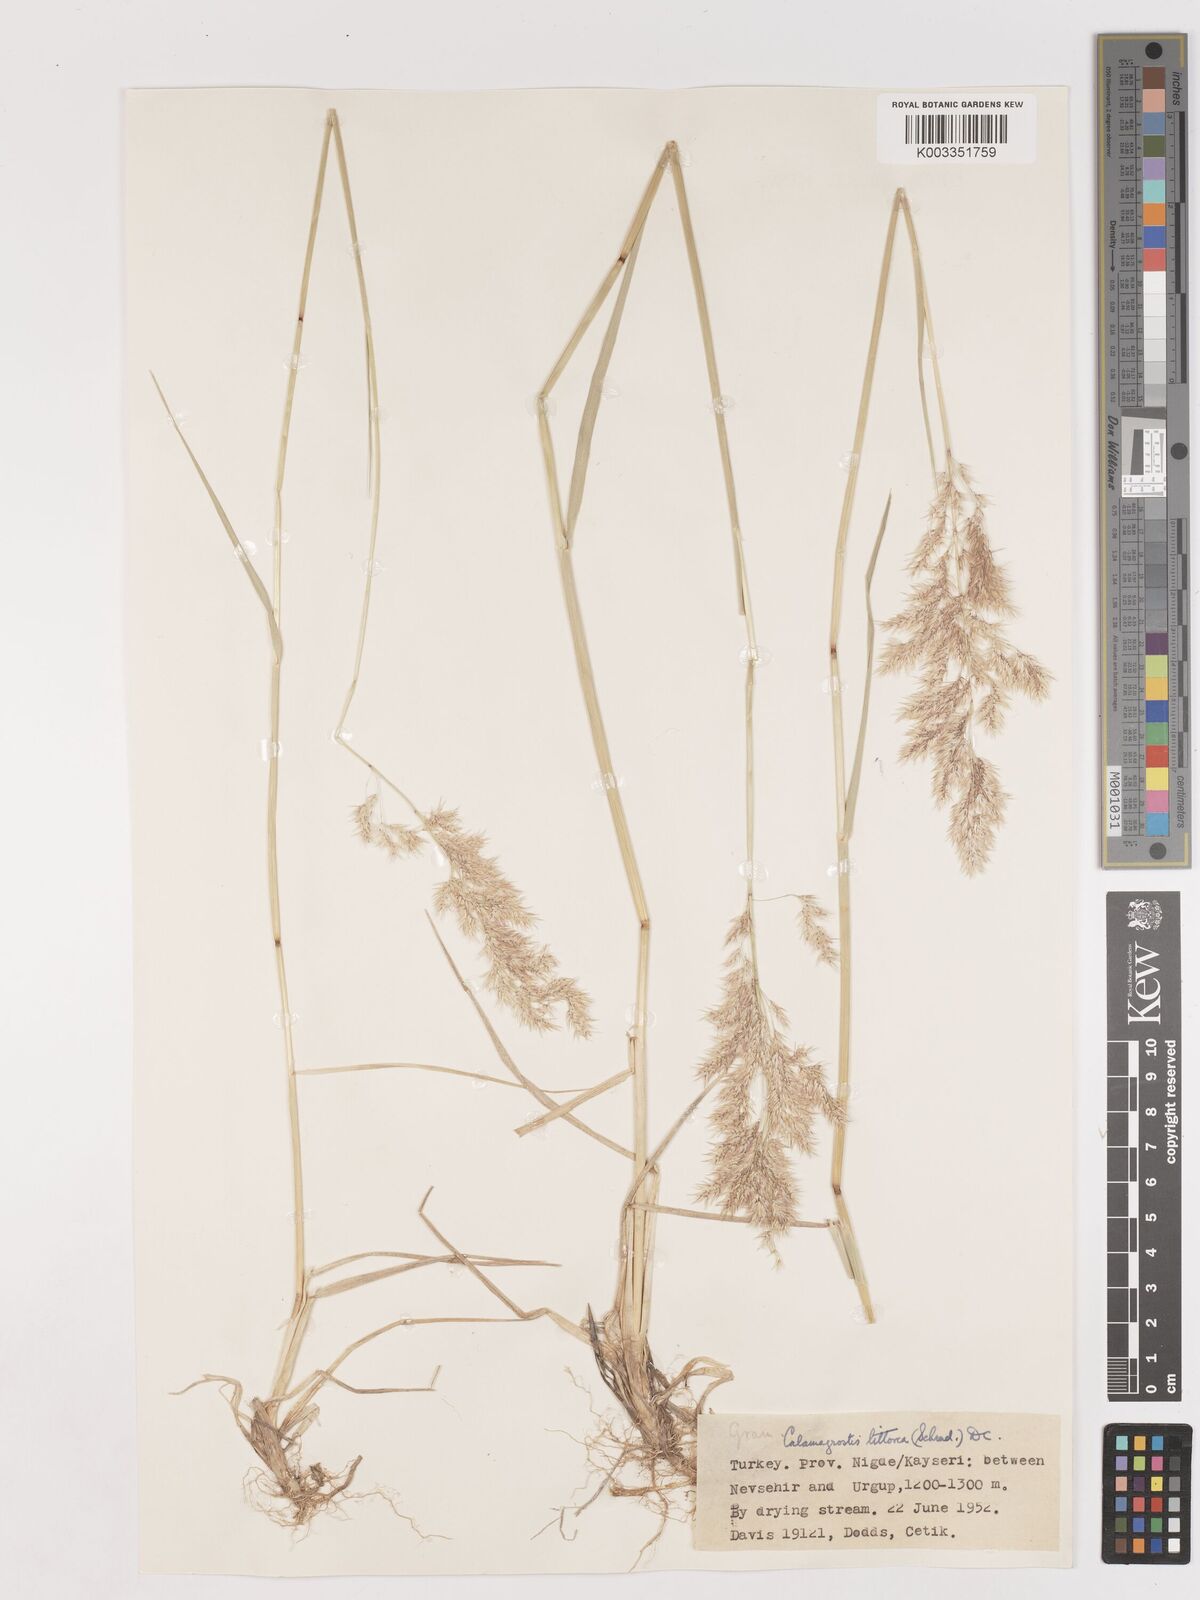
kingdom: Plantae
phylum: Tracheophyta
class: Liliopsida
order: Poales
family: Poaceae
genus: Calamagrostis
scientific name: Calamagrostis pseudophragmites
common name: Coastal small-reed
